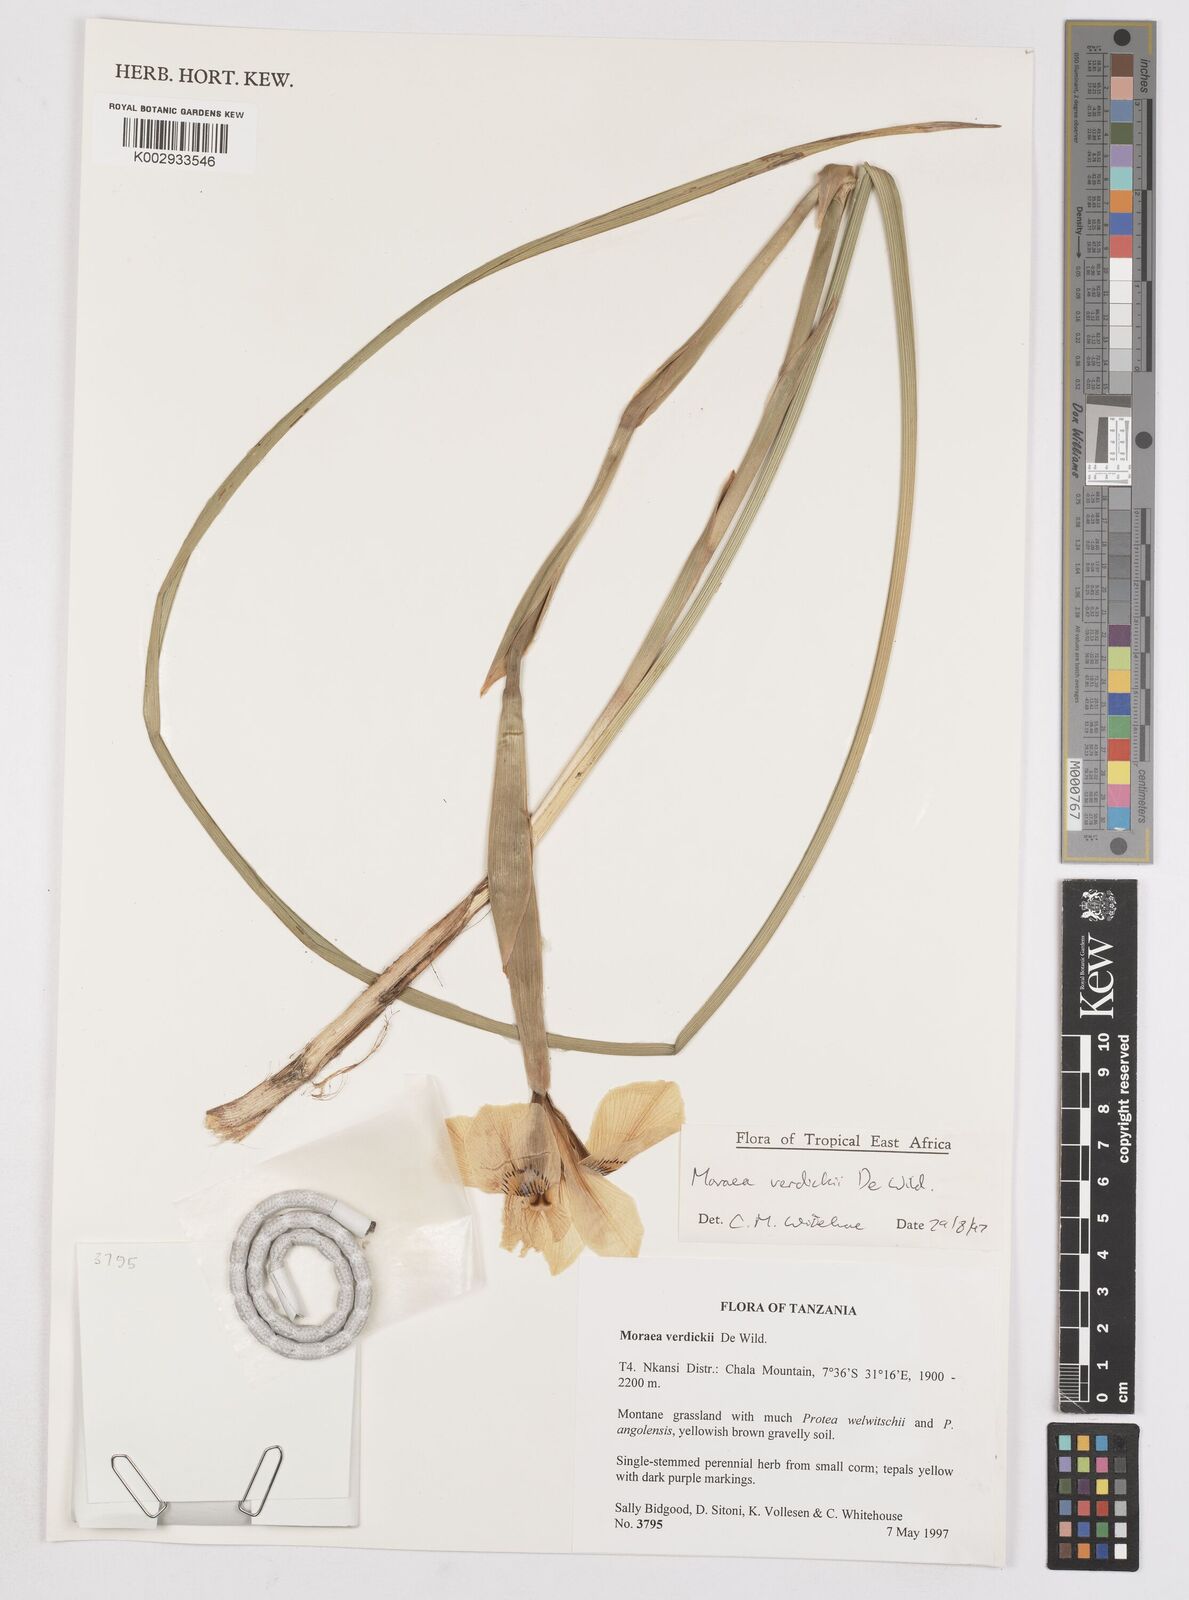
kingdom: Plantae
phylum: Tracheophyta
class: Liliopsida
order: Asparagales
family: Iridaceae
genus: Moraea
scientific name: Moraea verdickii
